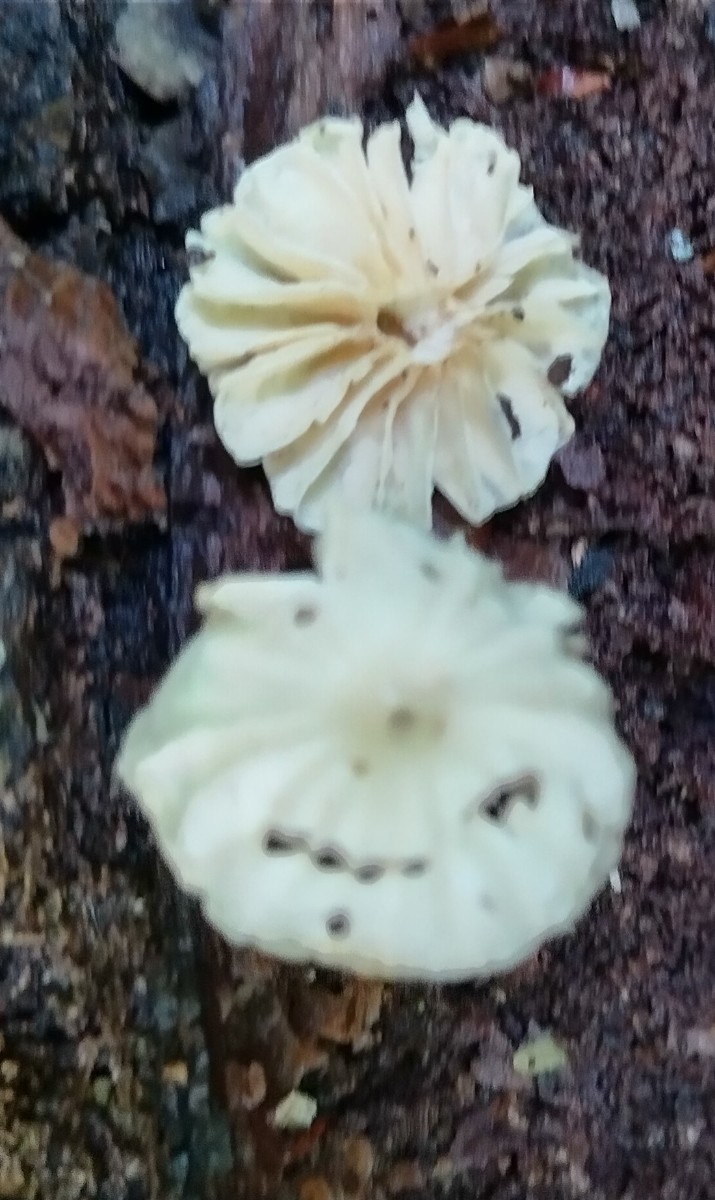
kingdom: Fungi
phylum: Basidiomycota
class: Agaricomycetes
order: Agaricales
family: Marasmiaceae
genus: Marasmius
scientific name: Marasmius rotula
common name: hjul-bruskhat
